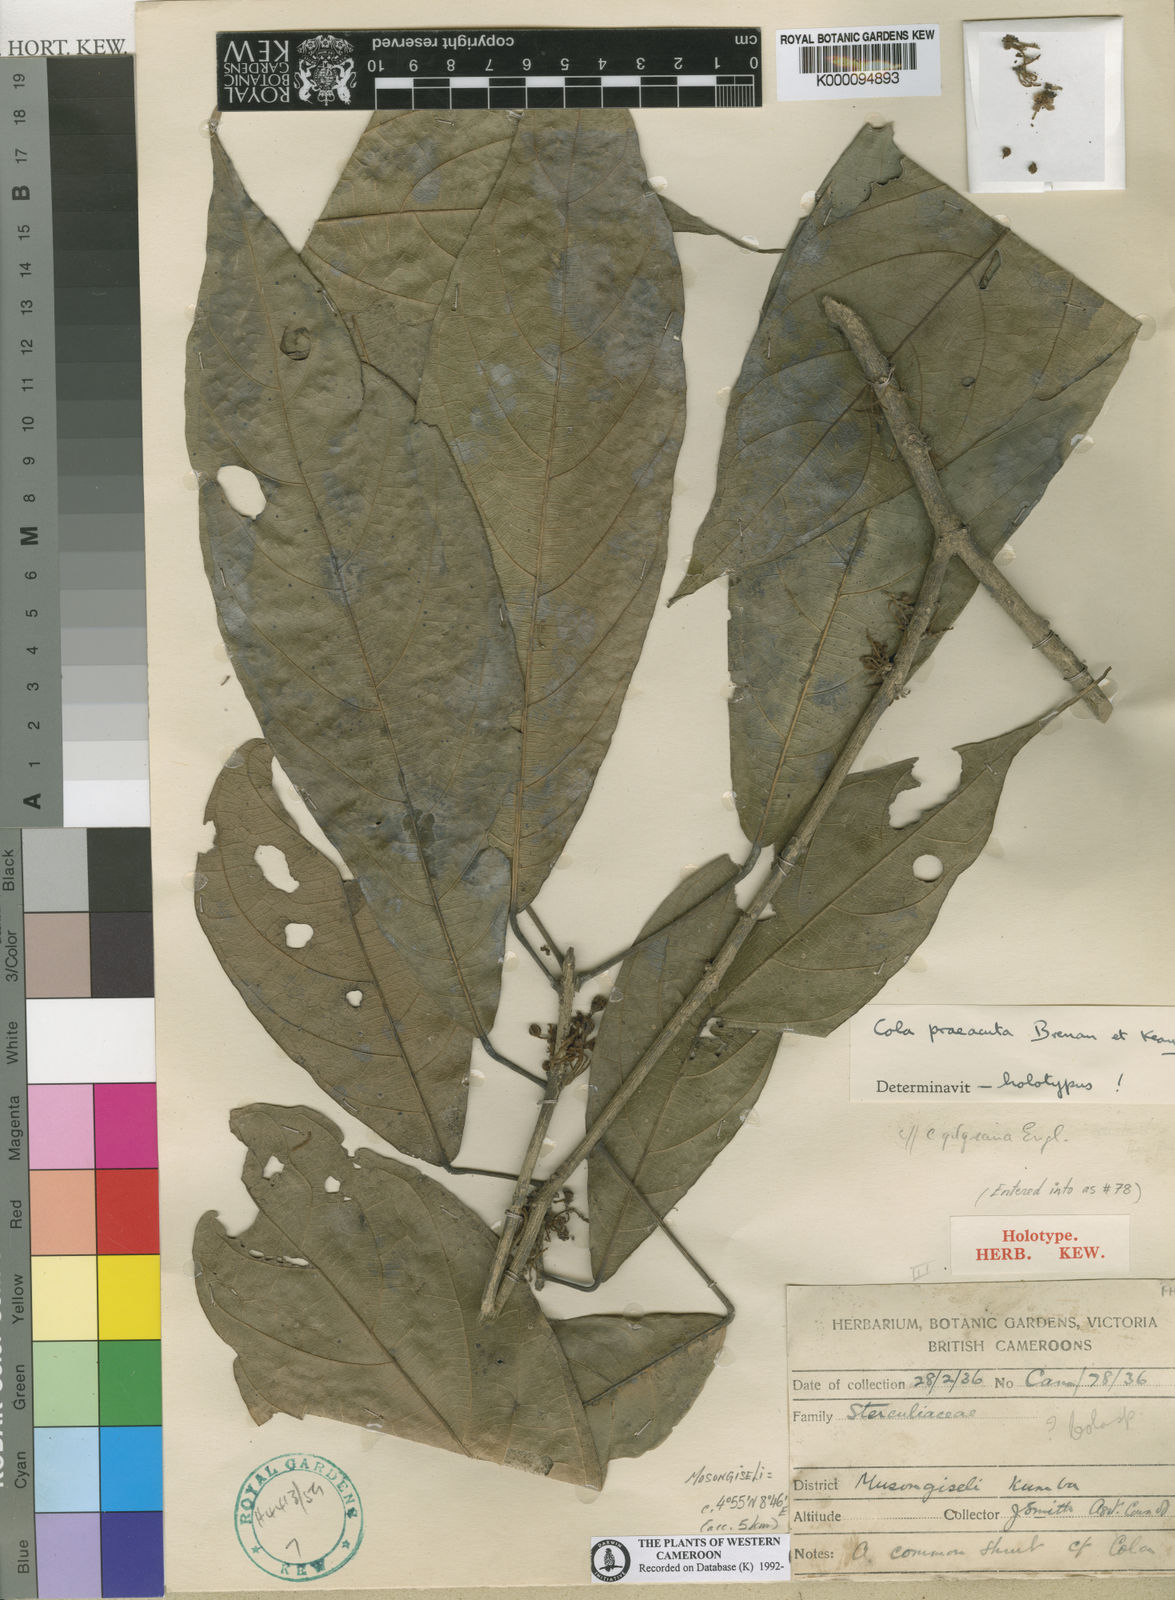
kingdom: Plantae
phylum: Tracheophyta
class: Magnoliopsida
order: Malvales
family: Malvaceae
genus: Cola
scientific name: Cola praeacuta
